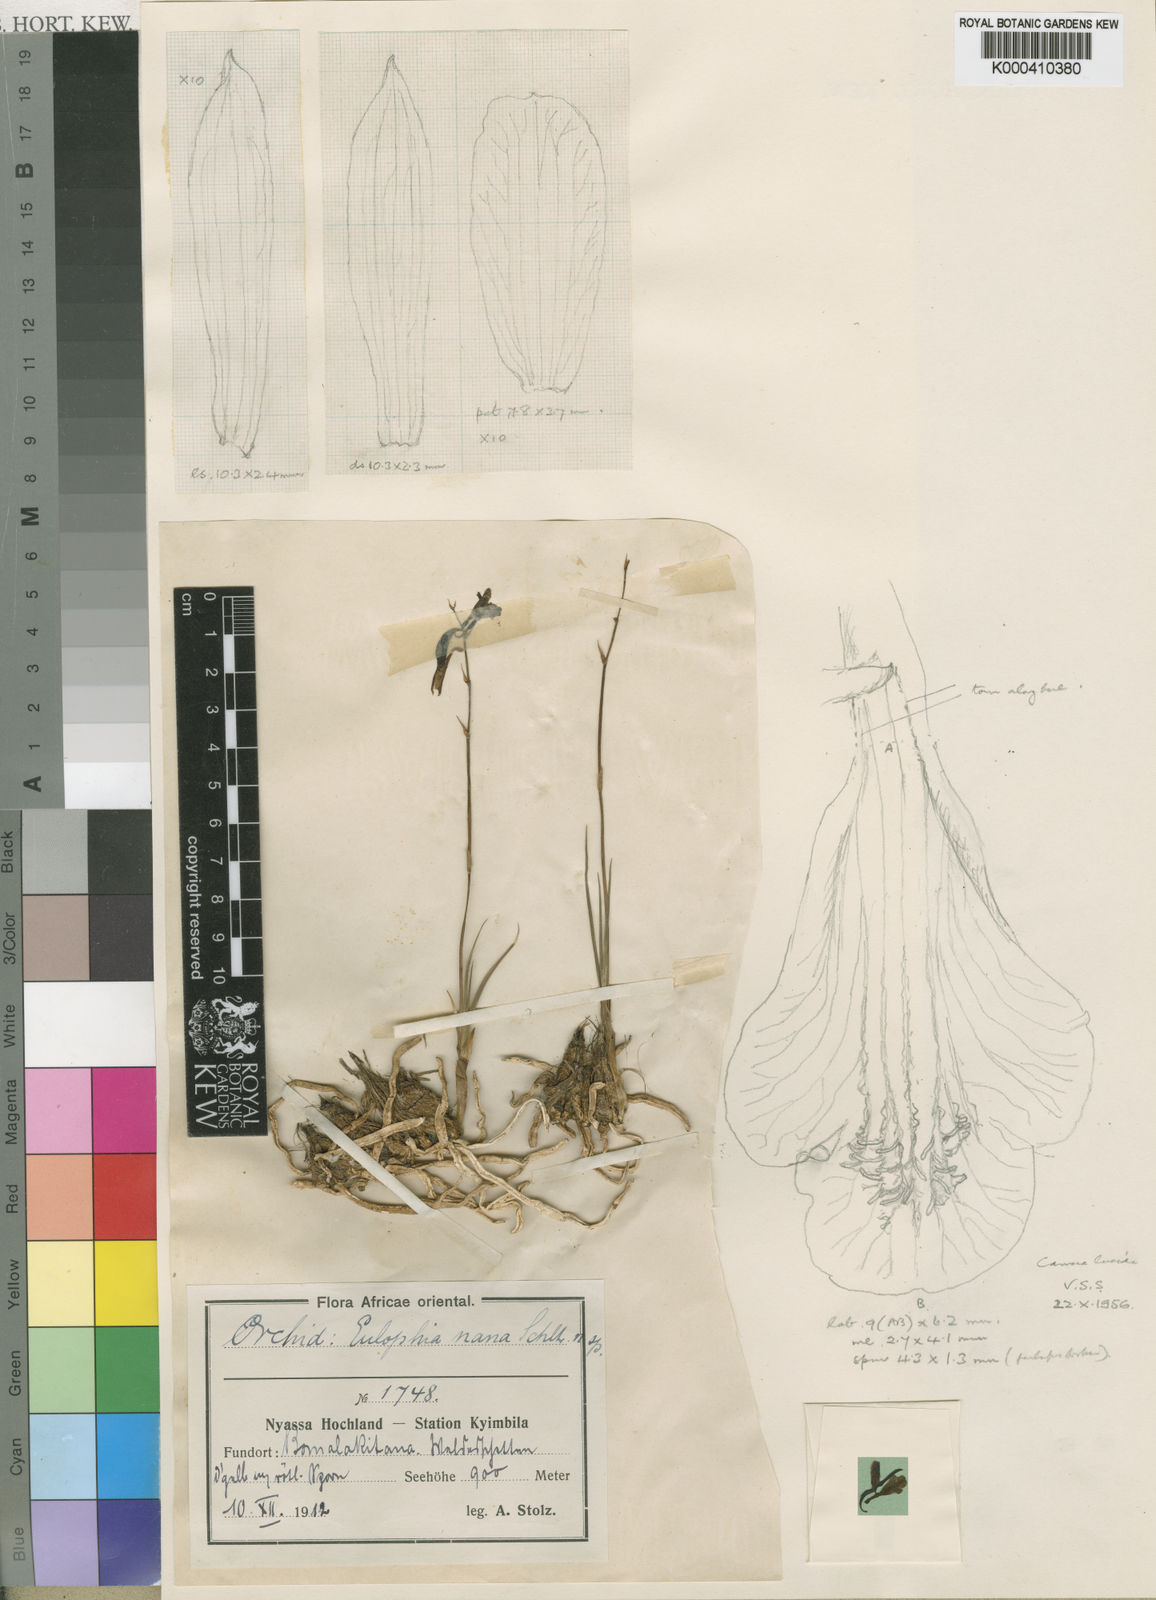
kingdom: Plantae
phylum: Tracheophyta
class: Liliopsida
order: Asparagales
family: Orchidaceae
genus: Eulophia
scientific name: Eulophia penduliflora
